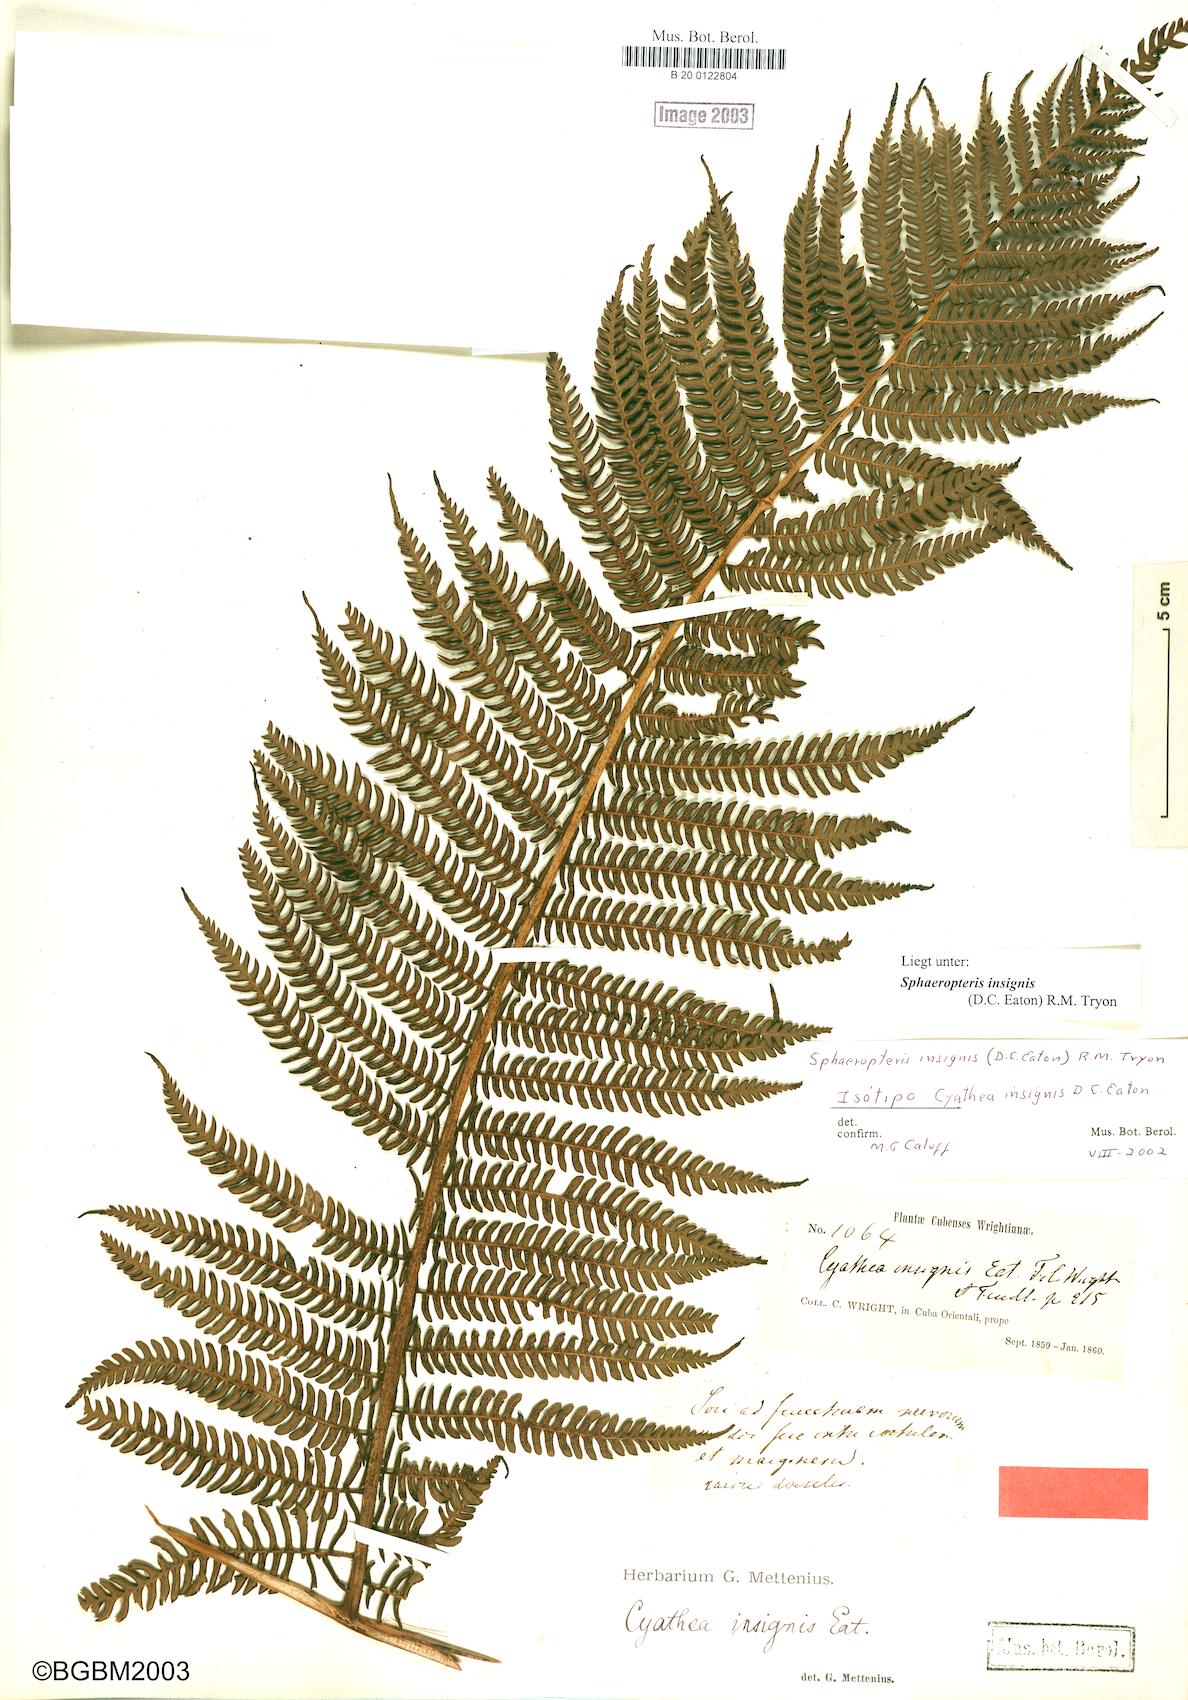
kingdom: Plantae
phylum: Tracheophyta
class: Polypodiopsida
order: Cyatheales
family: Cyatheaceae
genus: Sphaeropteris
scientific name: Sphaeropteris insignis
